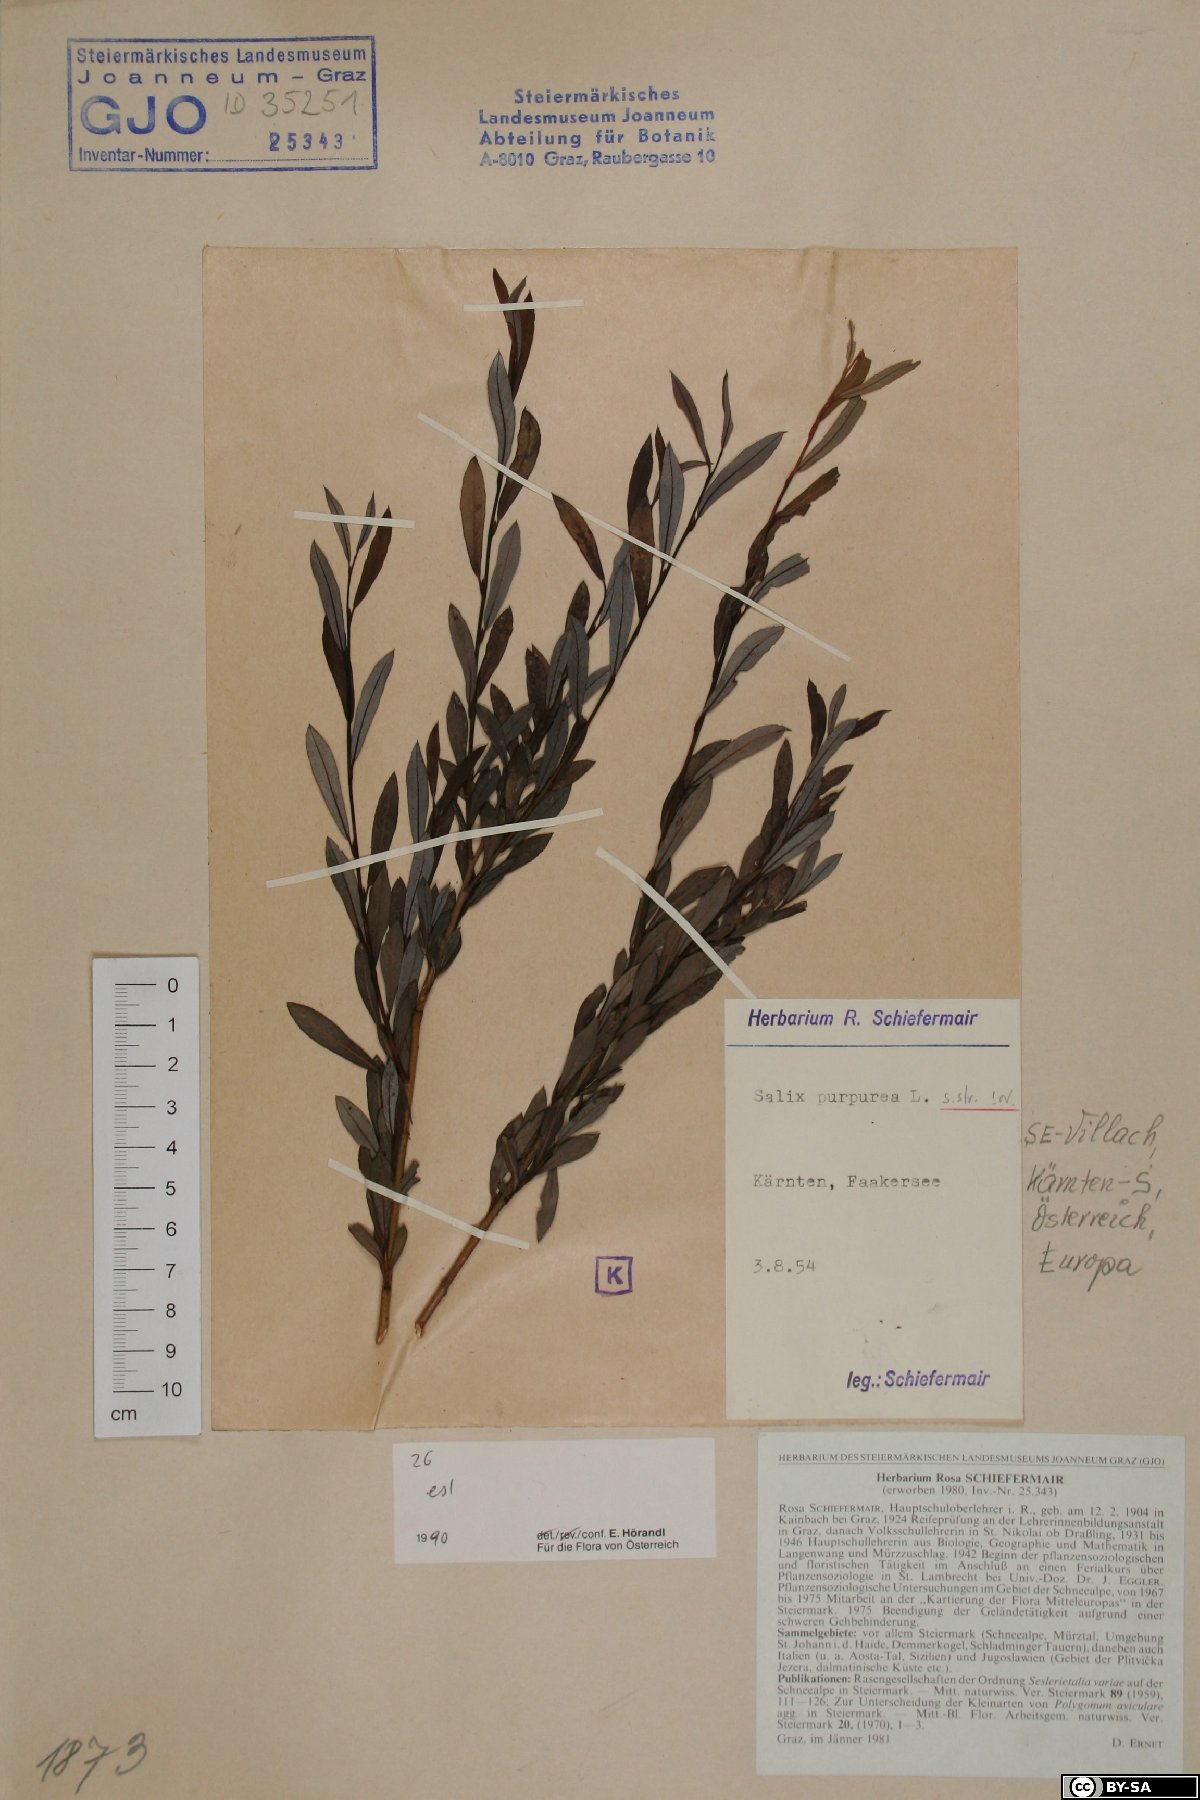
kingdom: Plantae
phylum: Tracheophyta
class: Magnoliopsida
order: Malpighiales
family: Salicaceae
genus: Salix
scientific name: Salix purpurea
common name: Purple willow
